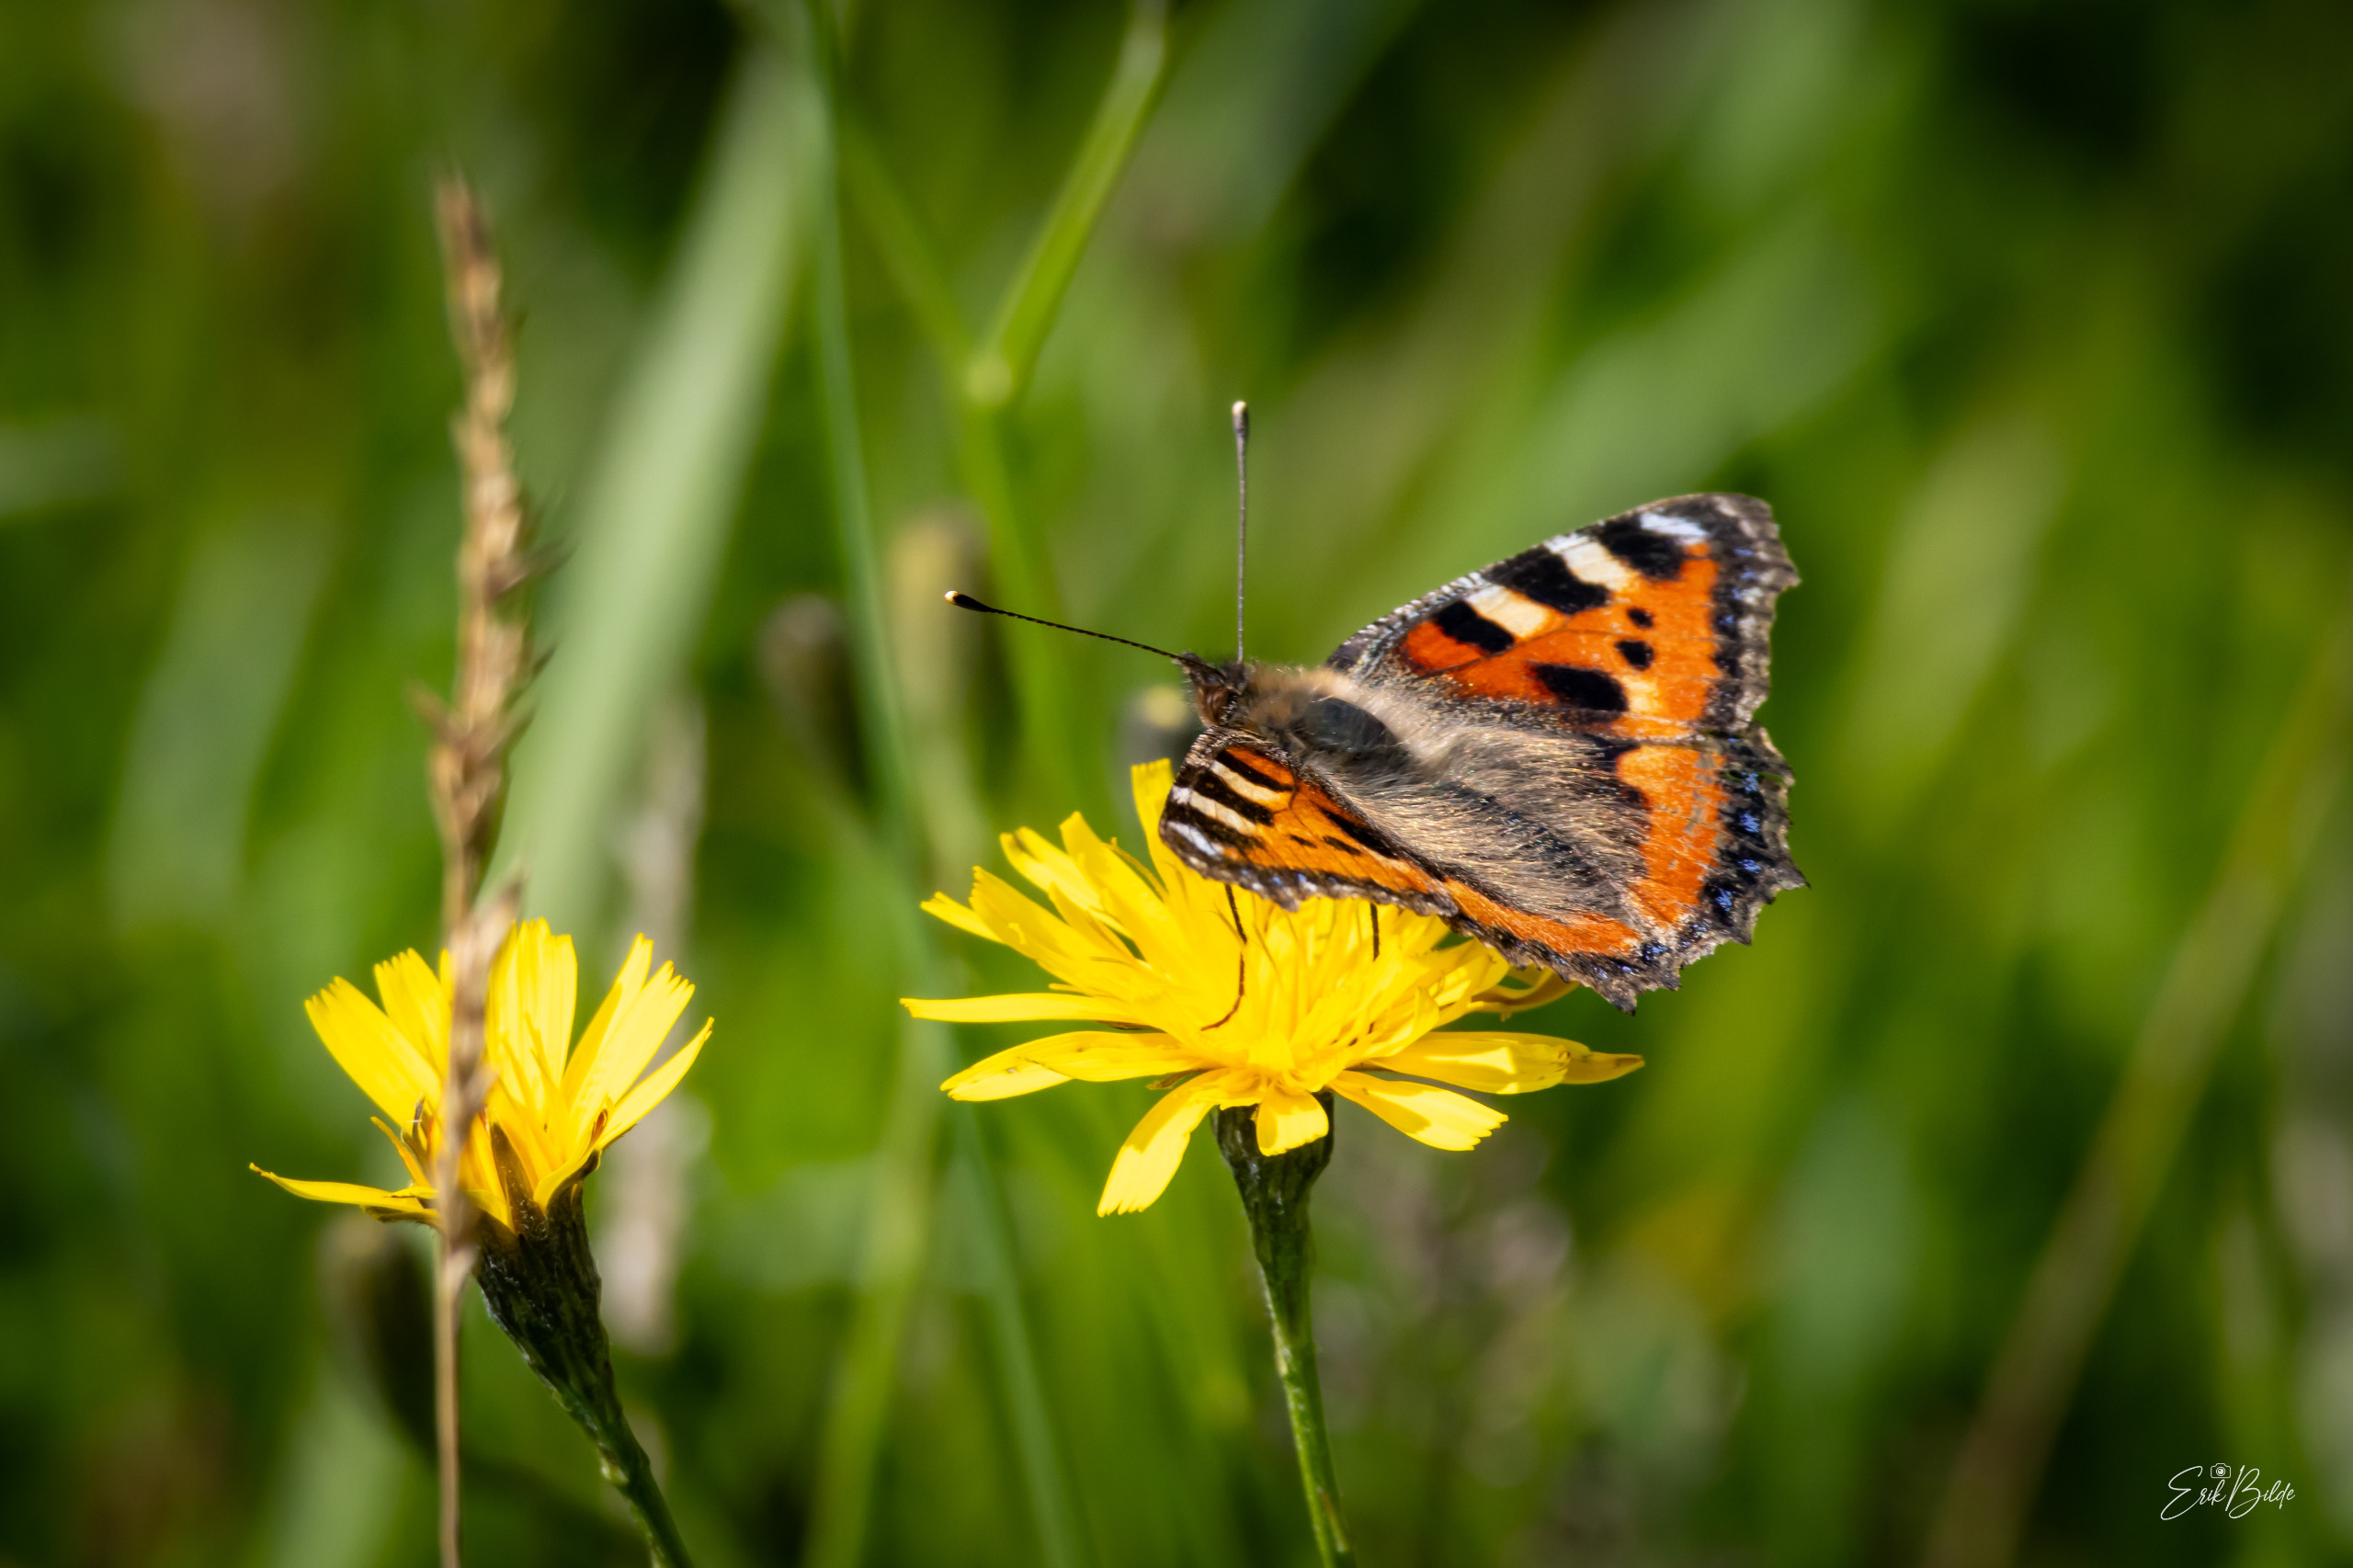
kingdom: Animalia
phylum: Arthropoda
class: Insecta
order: Lepidoptera
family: Nymphalidae
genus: Aglais
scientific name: Aglais urticae
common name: Nældens takvinge
